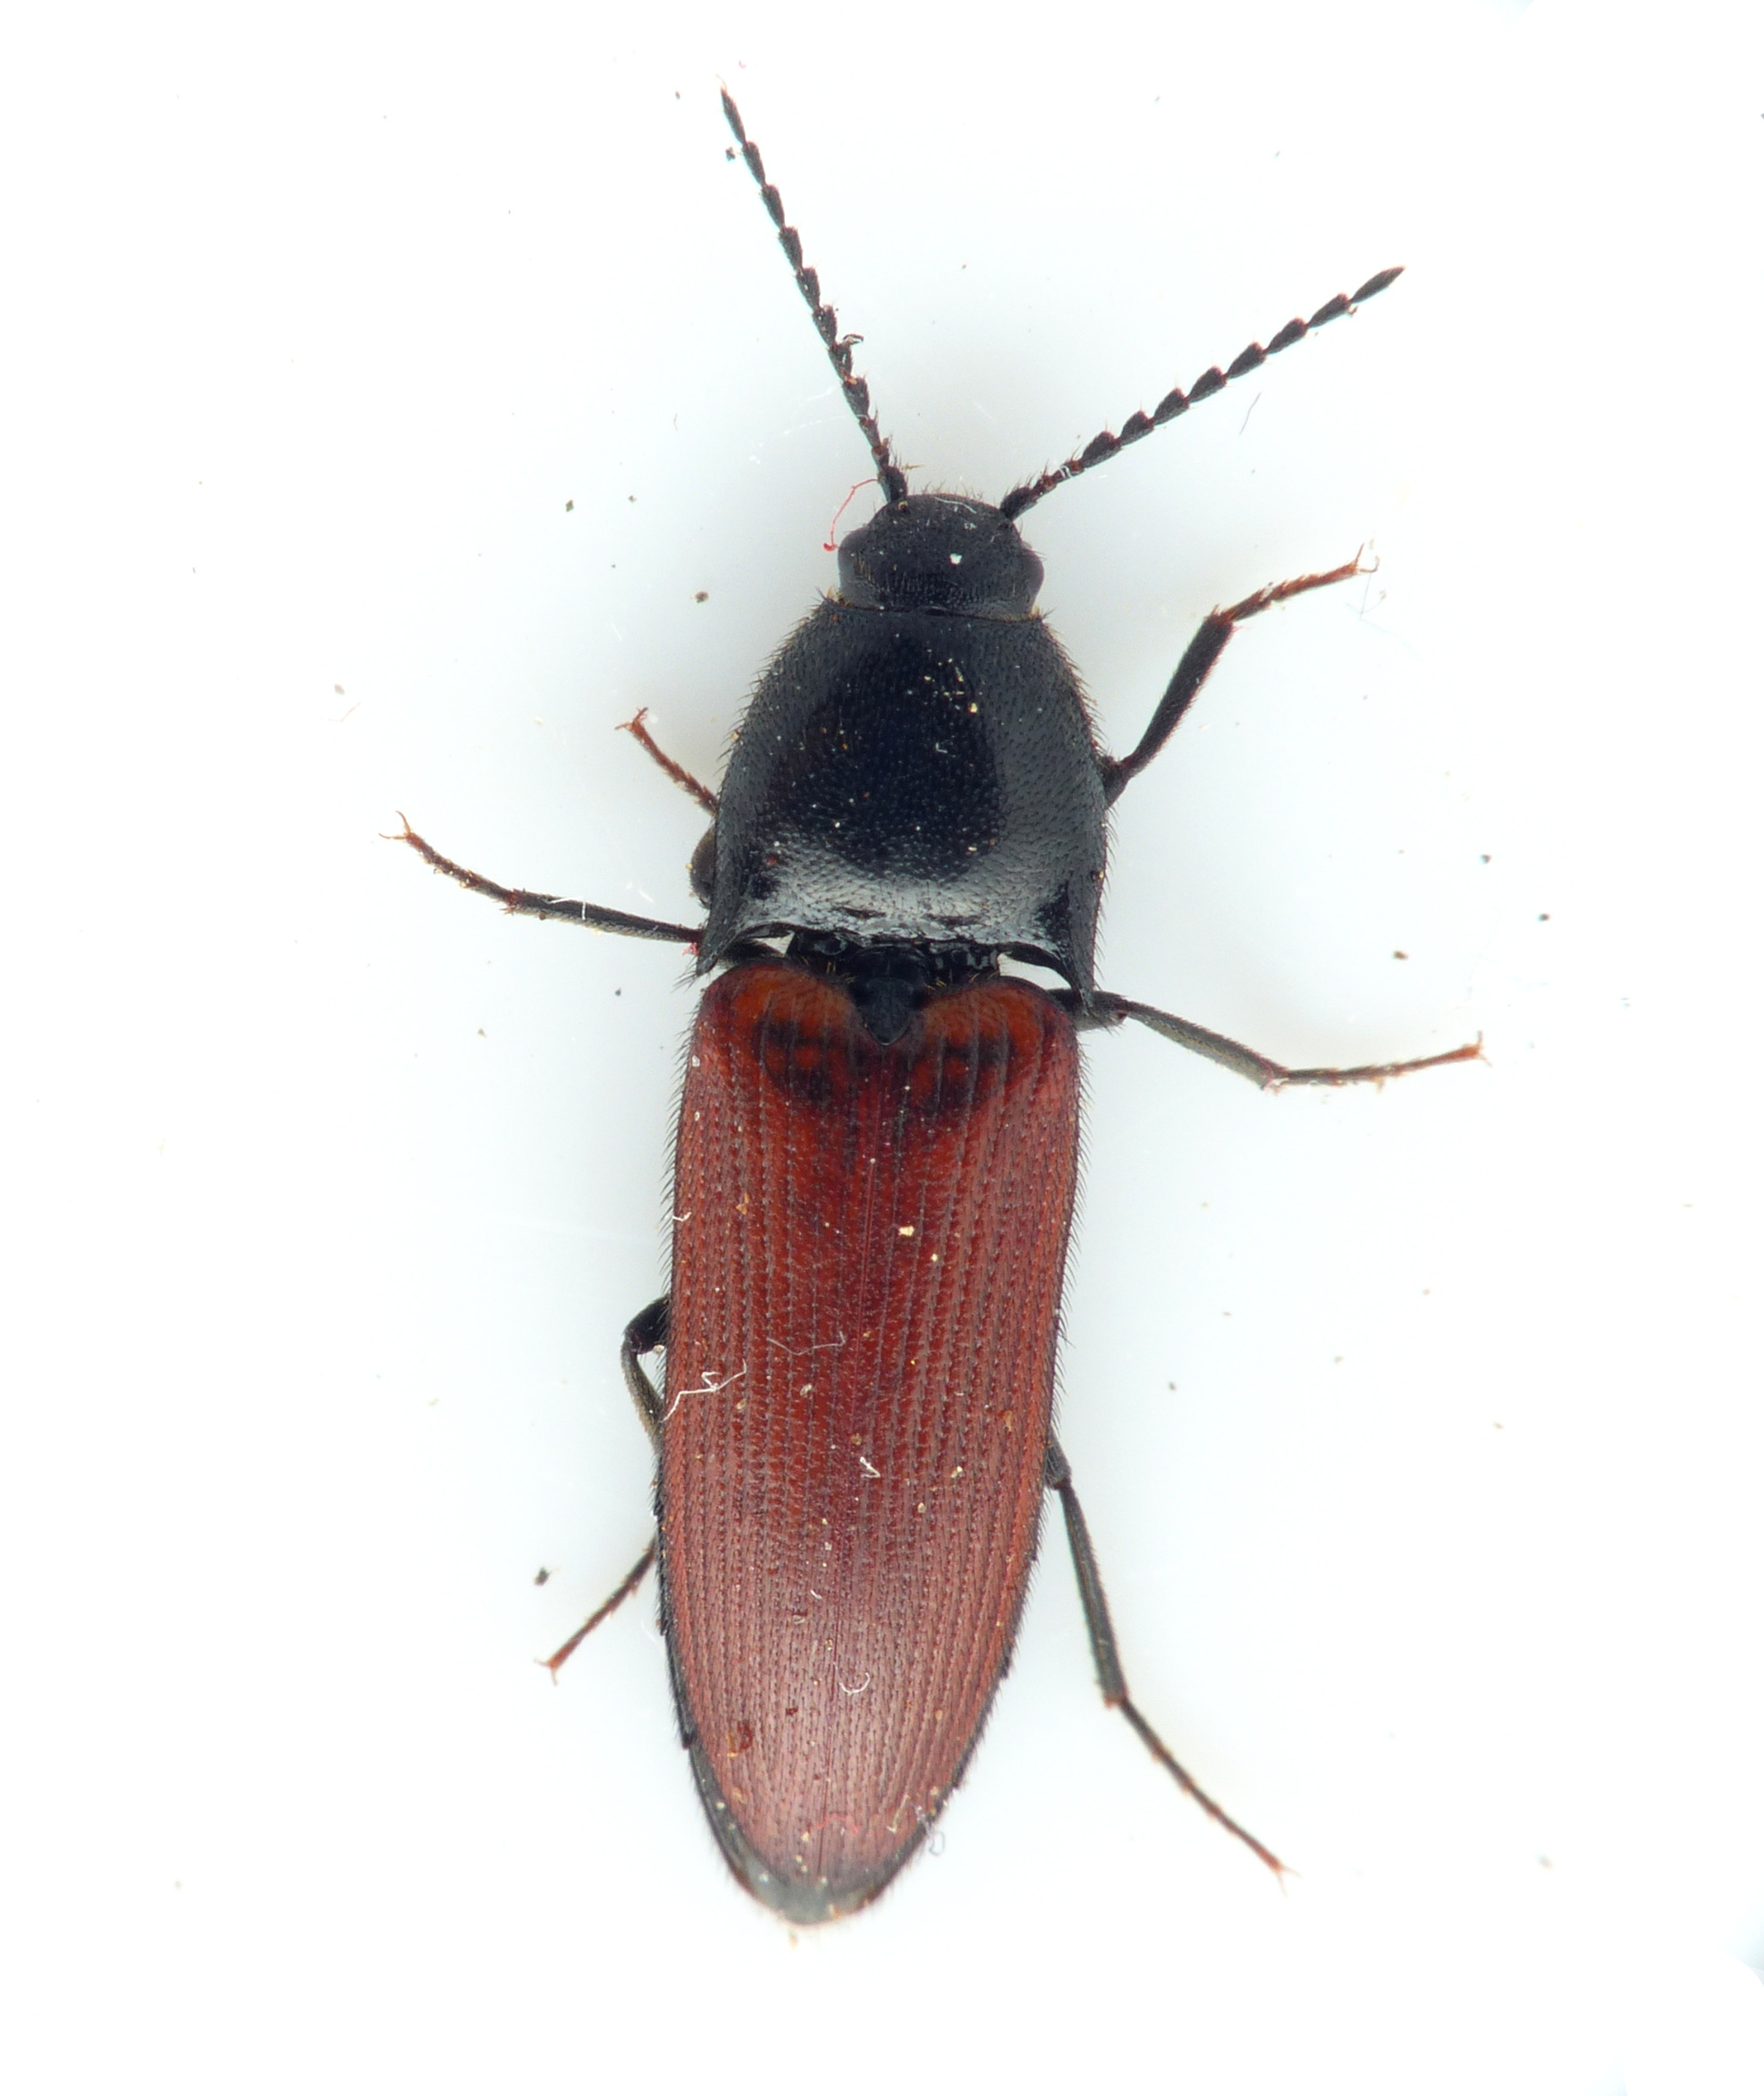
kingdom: Animalia
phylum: Arthropoda
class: Insecta
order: Coleoptera
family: Elateridae
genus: Ampedus
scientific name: Ampedus pomorum
